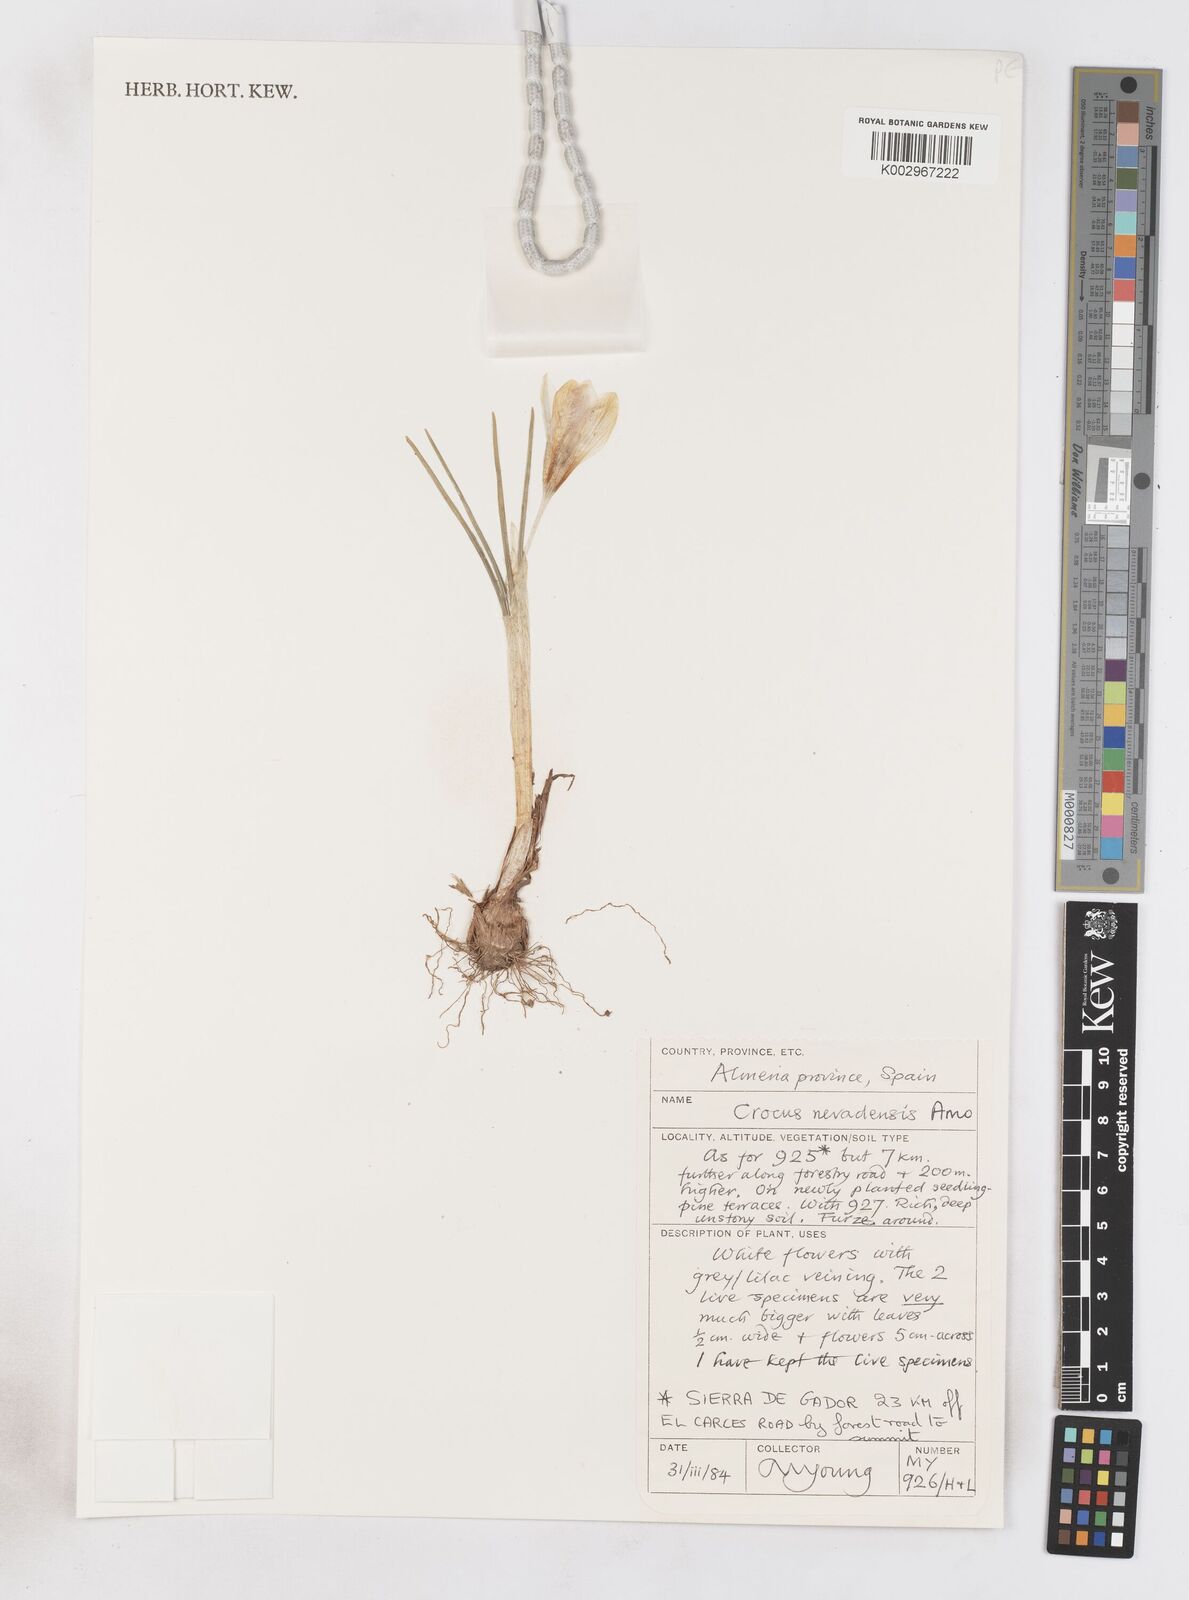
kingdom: Plantae
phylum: Tracheophyta
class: Liliopsida
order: Asparagales
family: Iridaceae
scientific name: Iridaceae
